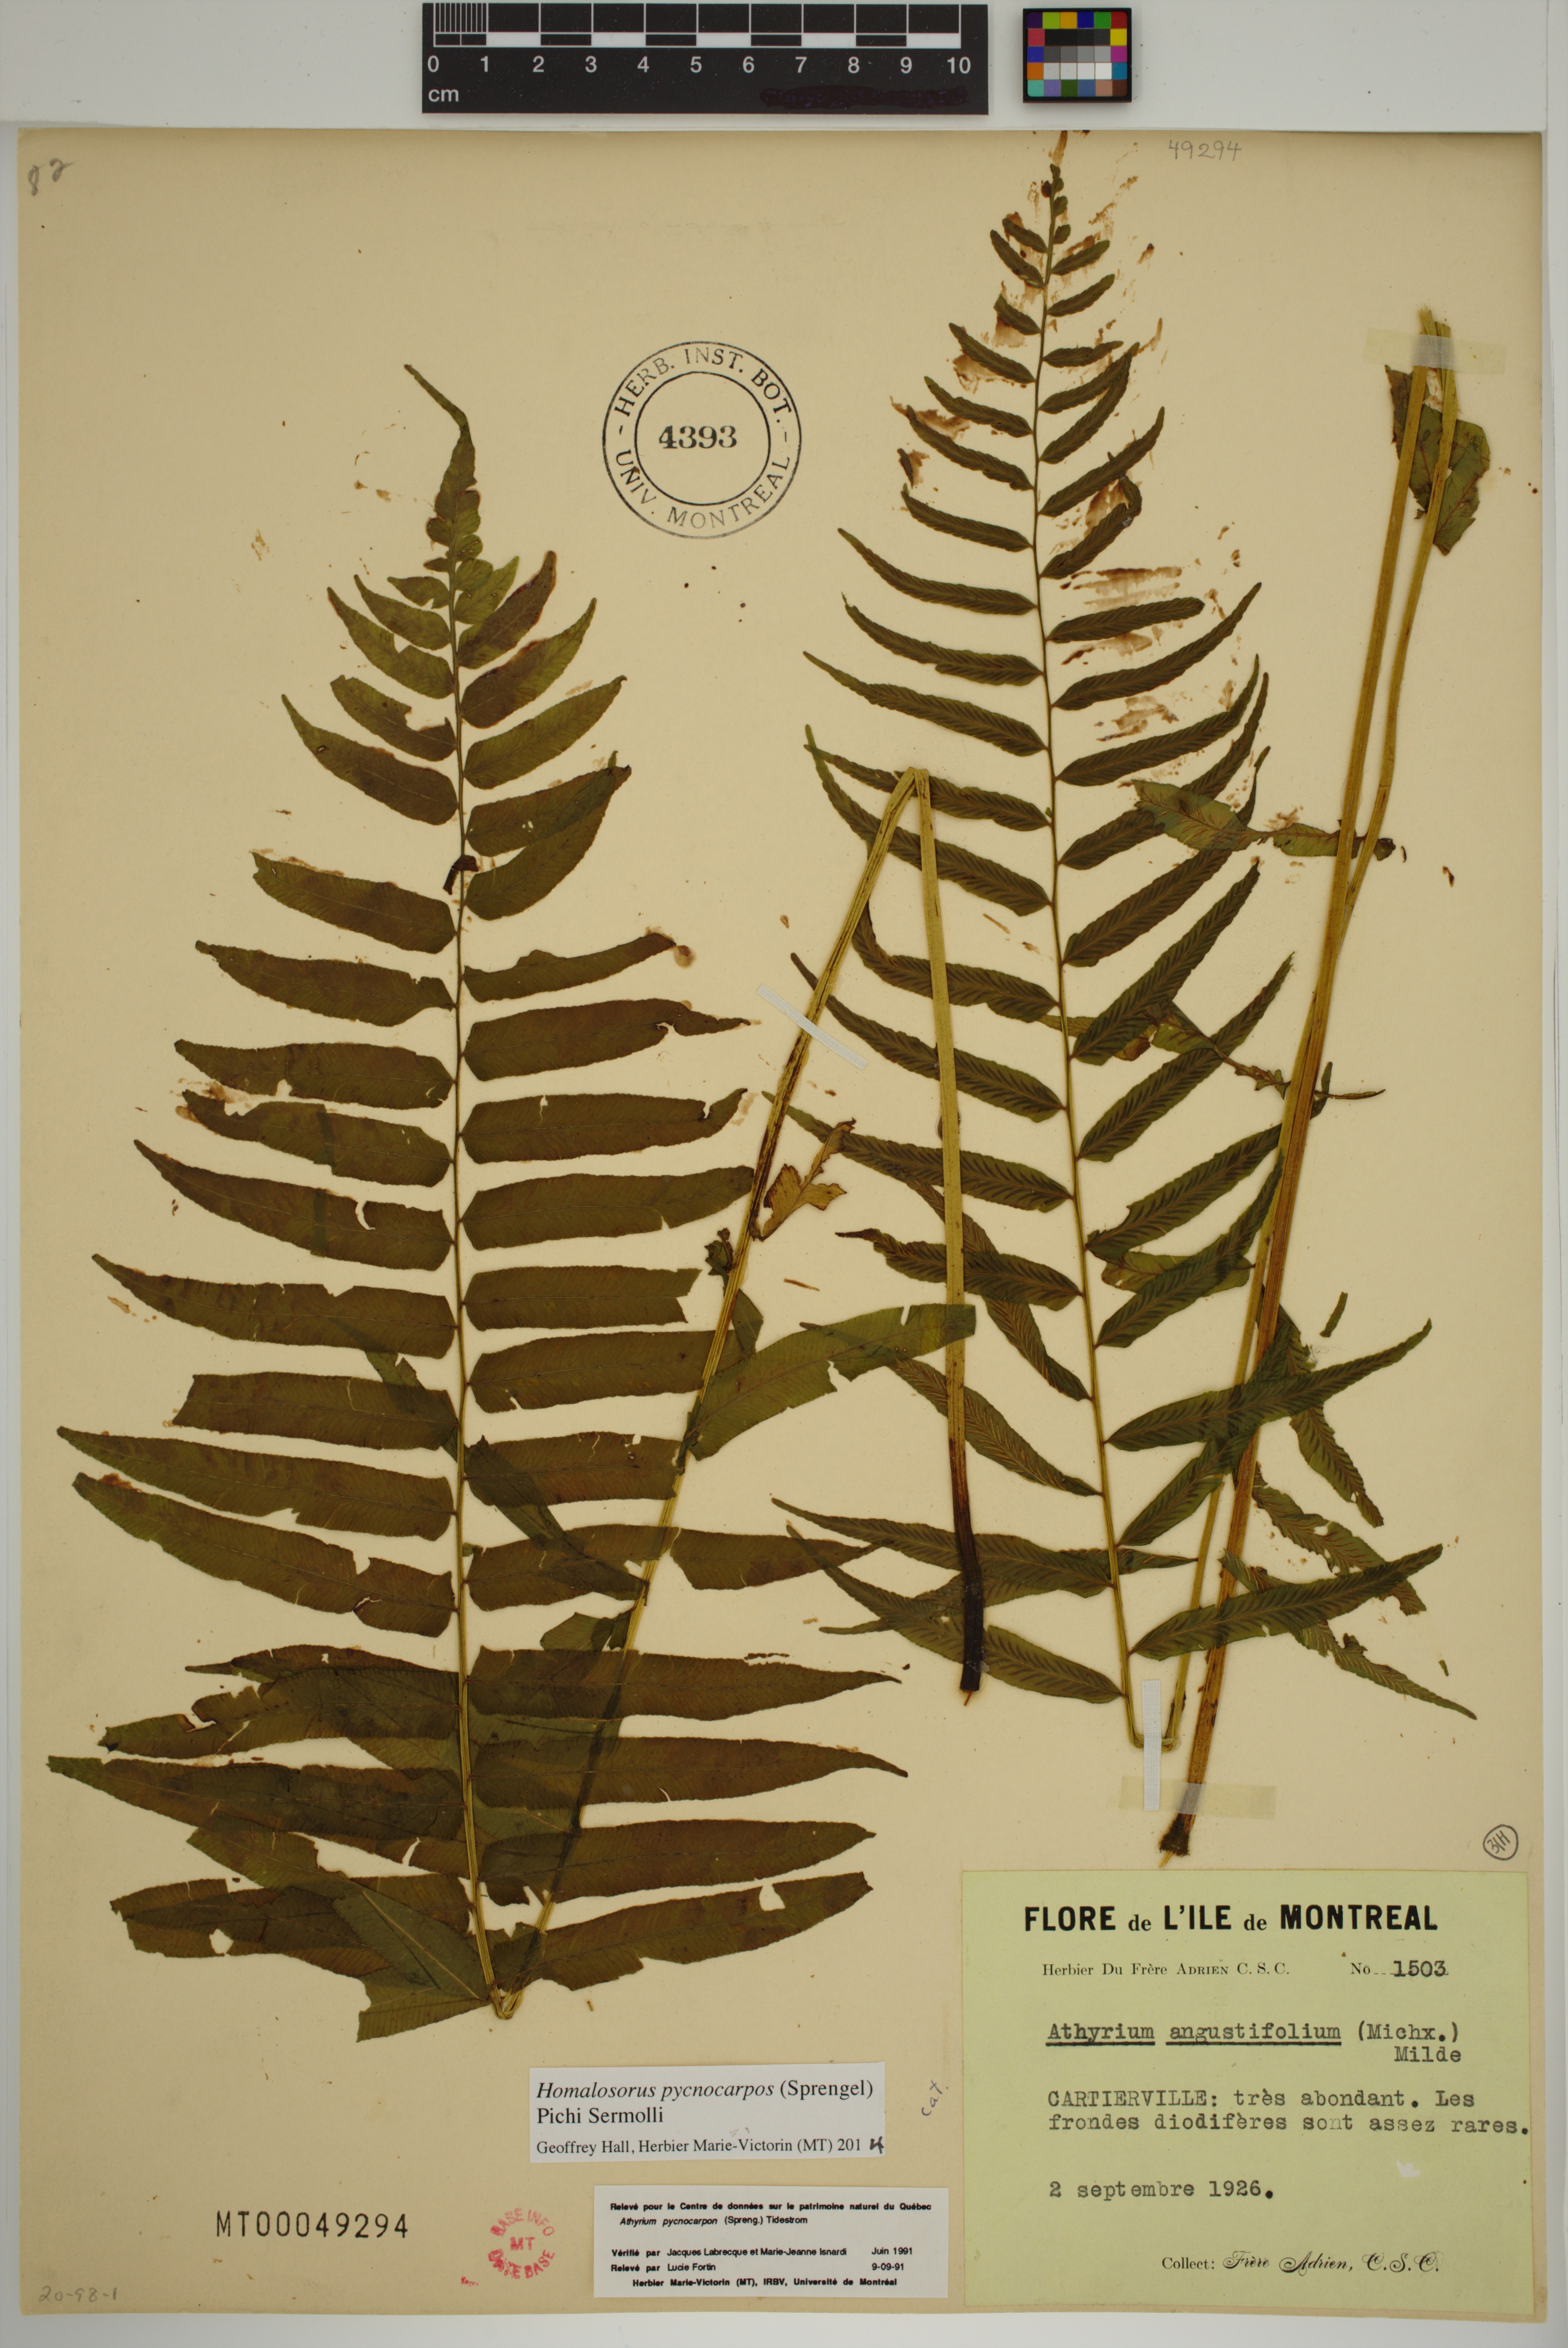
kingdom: Plantae
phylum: Tracheophyta
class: Polypodiopsida
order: Polypodiales
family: Diplaziopsidaceae
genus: Homalosorus
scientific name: Homalosorus pycnocarpos
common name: Glade fern
